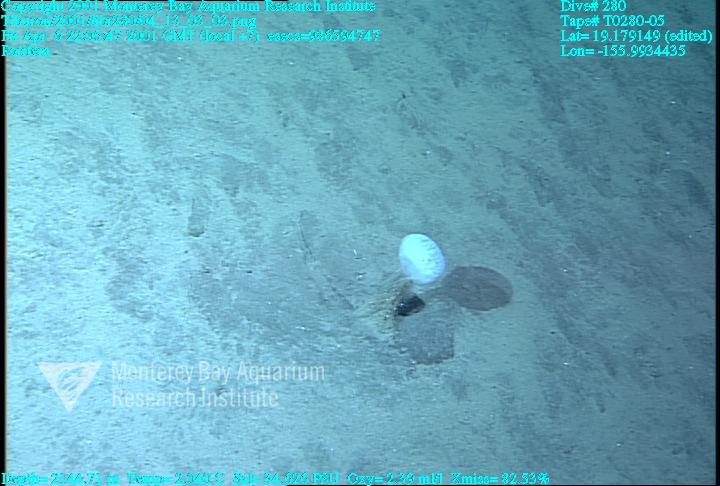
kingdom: Animalia
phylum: Porifera
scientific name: Porifera
